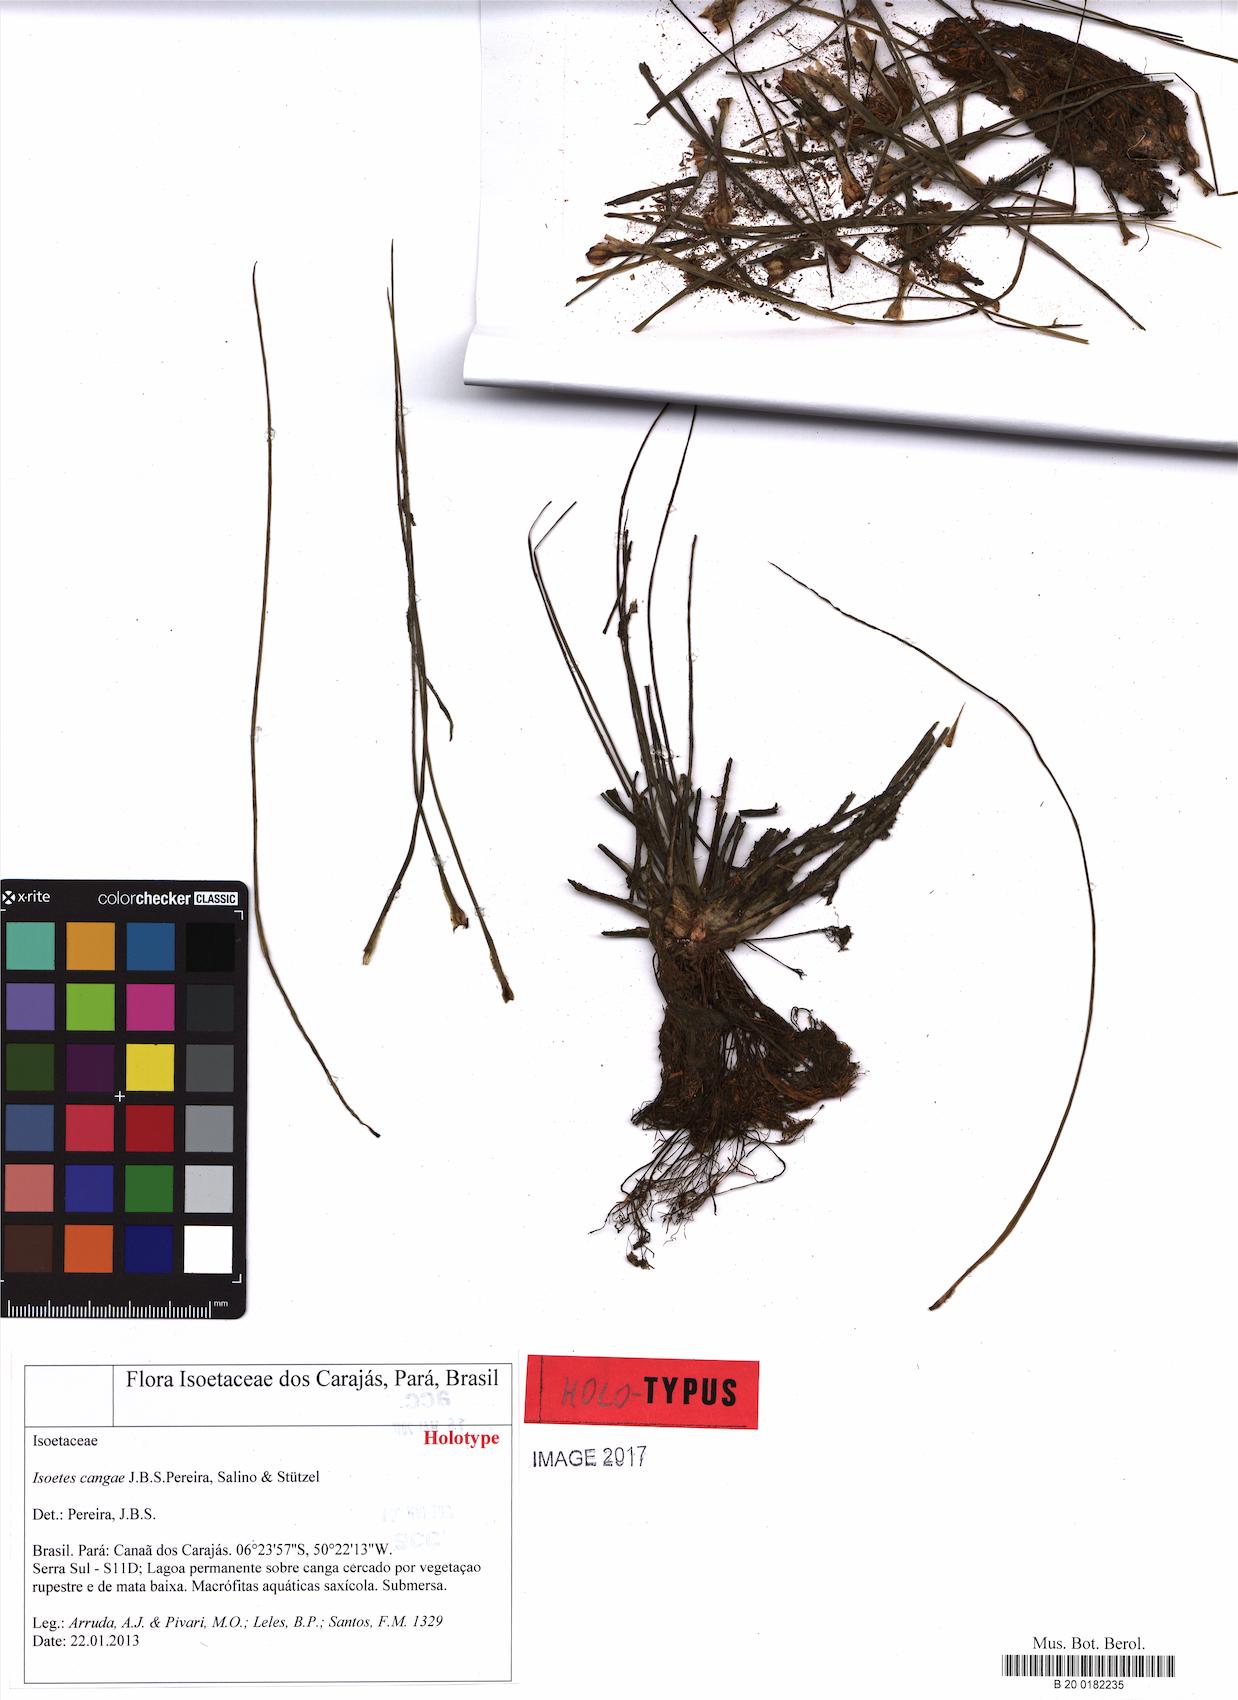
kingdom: Plantae
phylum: Tracheophyta
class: Lycopodiopsida
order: Isoetales
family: Isoetaceae
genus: Isoetes
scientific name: Isoetes cangae
